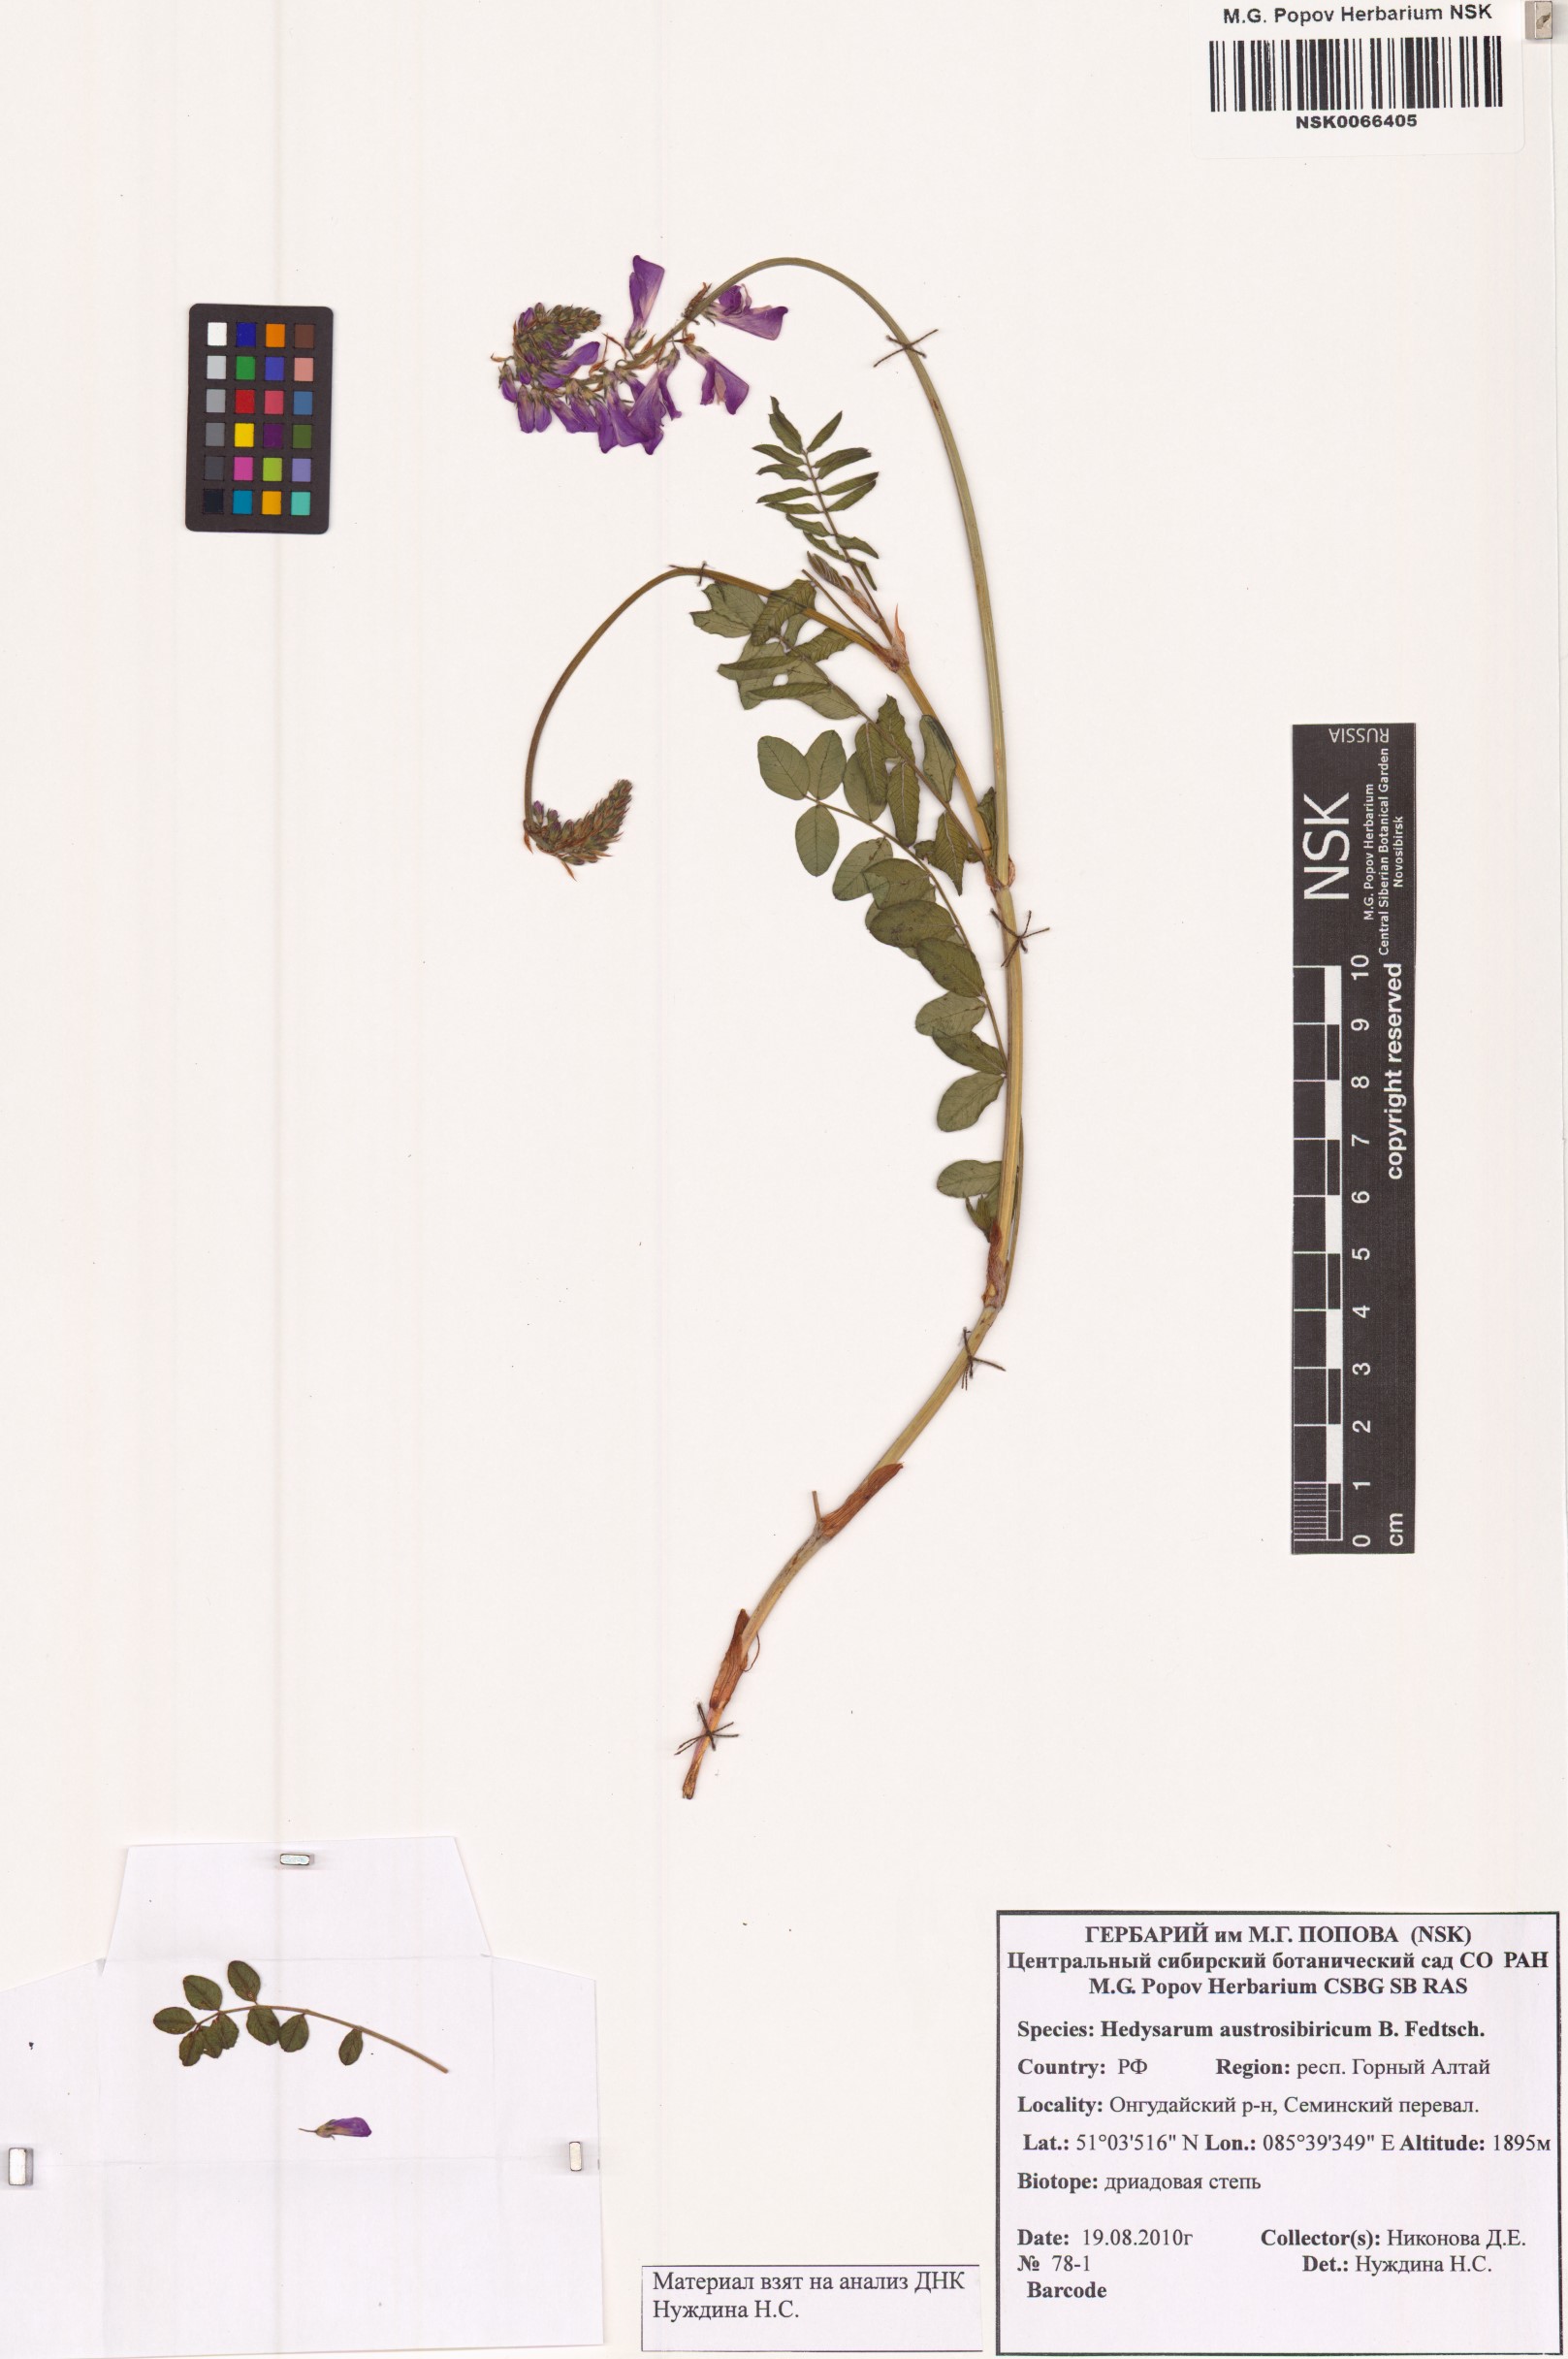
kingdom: Plantae
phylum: Tracheophyta
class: Magnoliopsida
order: Fabales
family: Fabaceae
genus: Hedysarum
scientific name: Hedysarum neglectum
